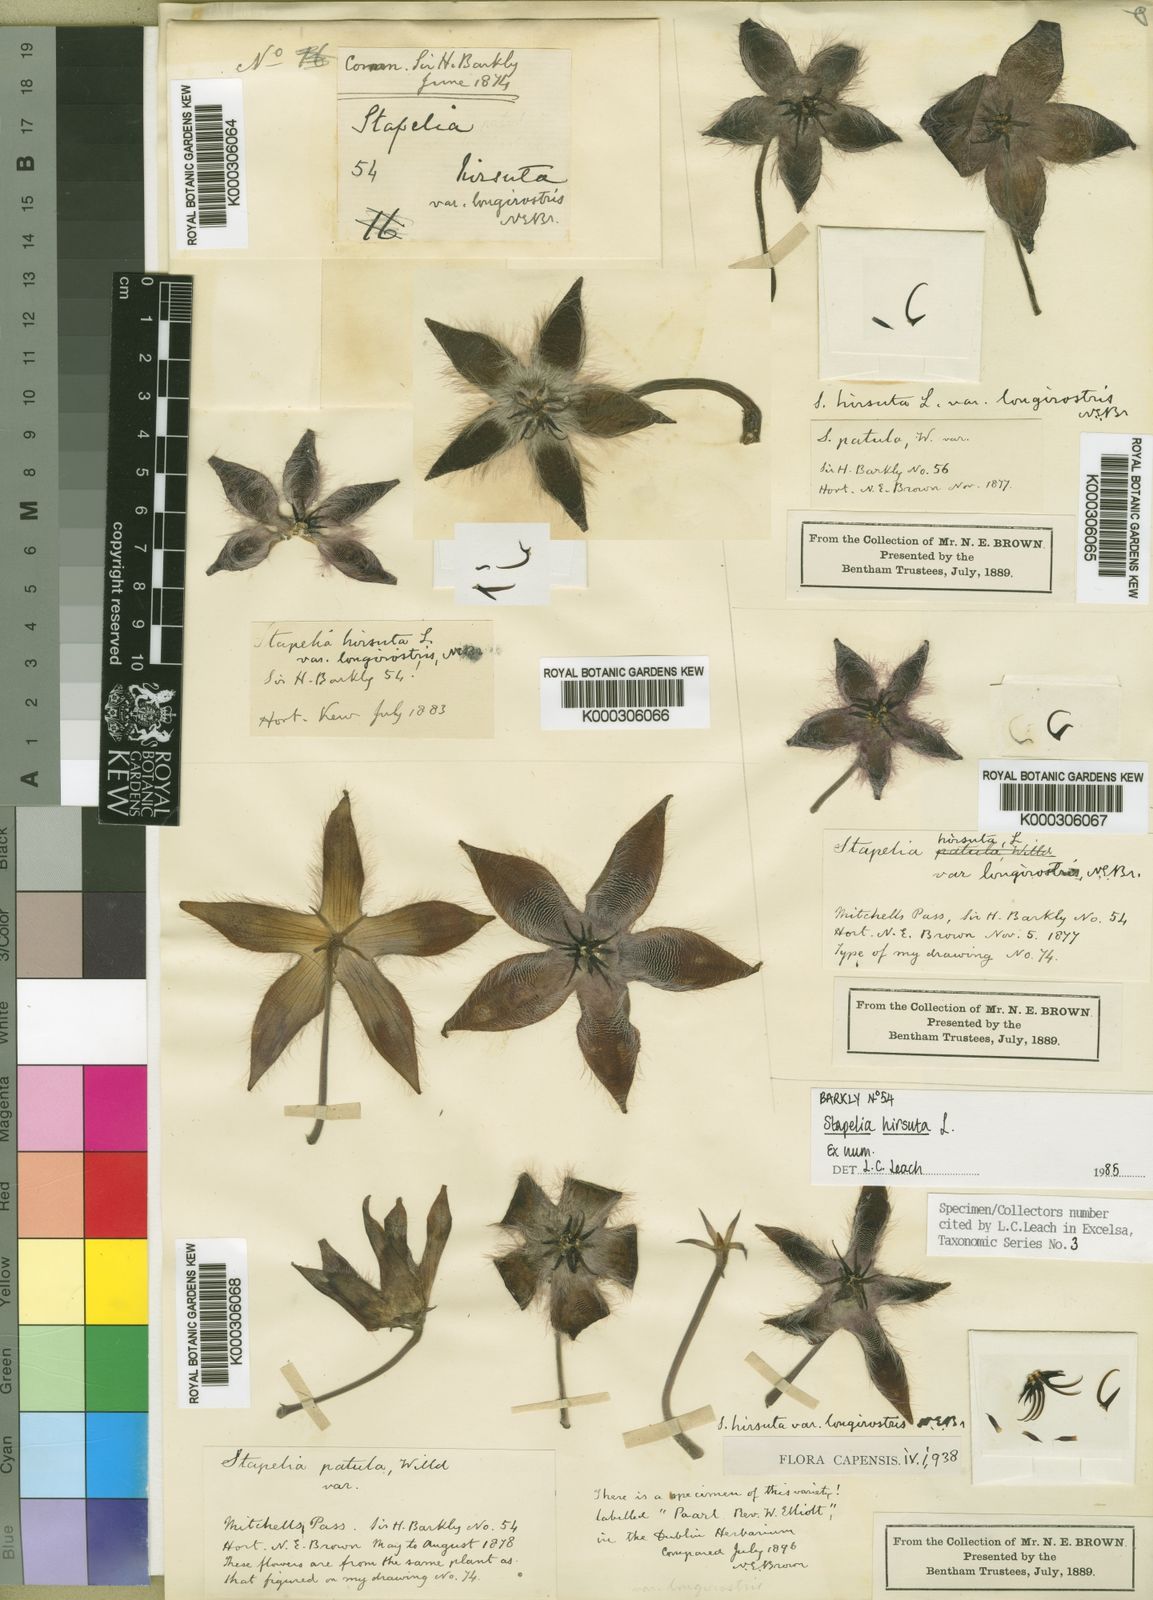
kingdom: Plantae
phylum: Tracheophyta
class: Magnoliopsida
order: Gentianales
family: Apocynaceae
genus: Ceropegia
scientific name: Ceropegia pulvinata
